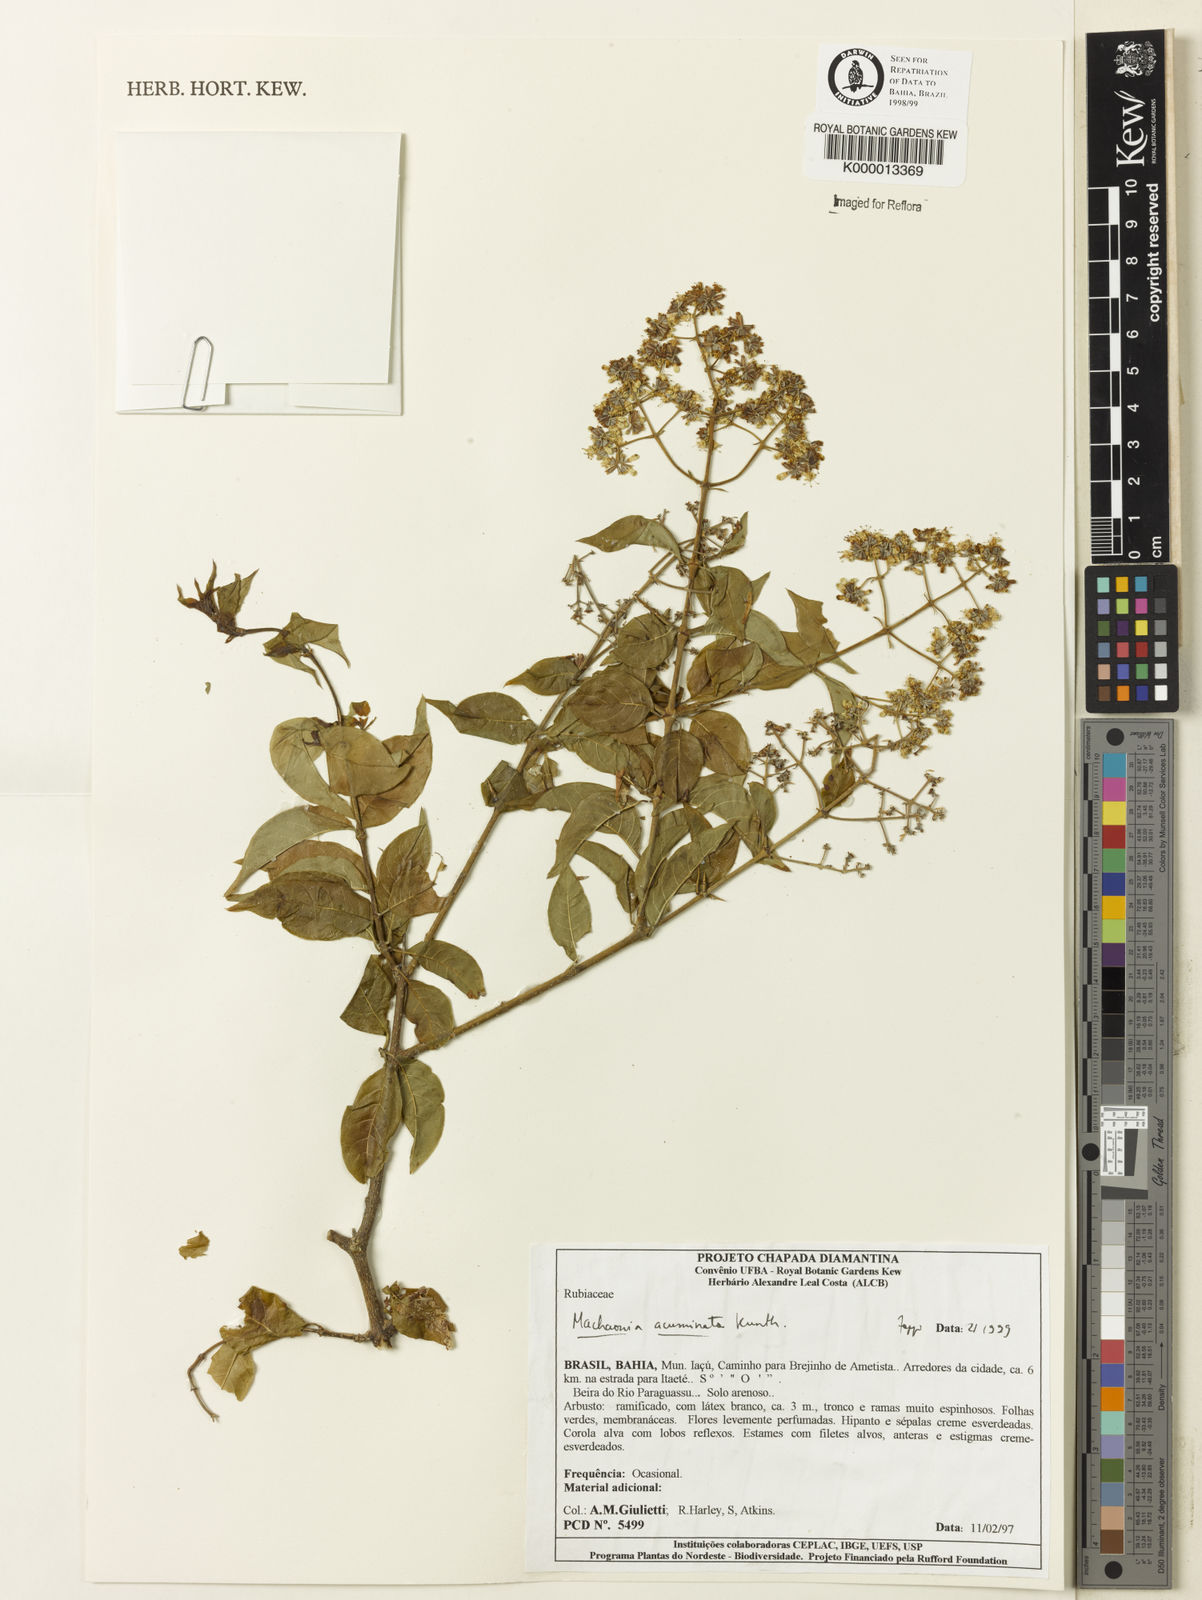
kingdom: Plantae
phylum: Tracheophyta
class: Magnoliopsida
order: Gentianales
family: Rubiaceae
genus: Machaonia
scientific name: Machaonia
